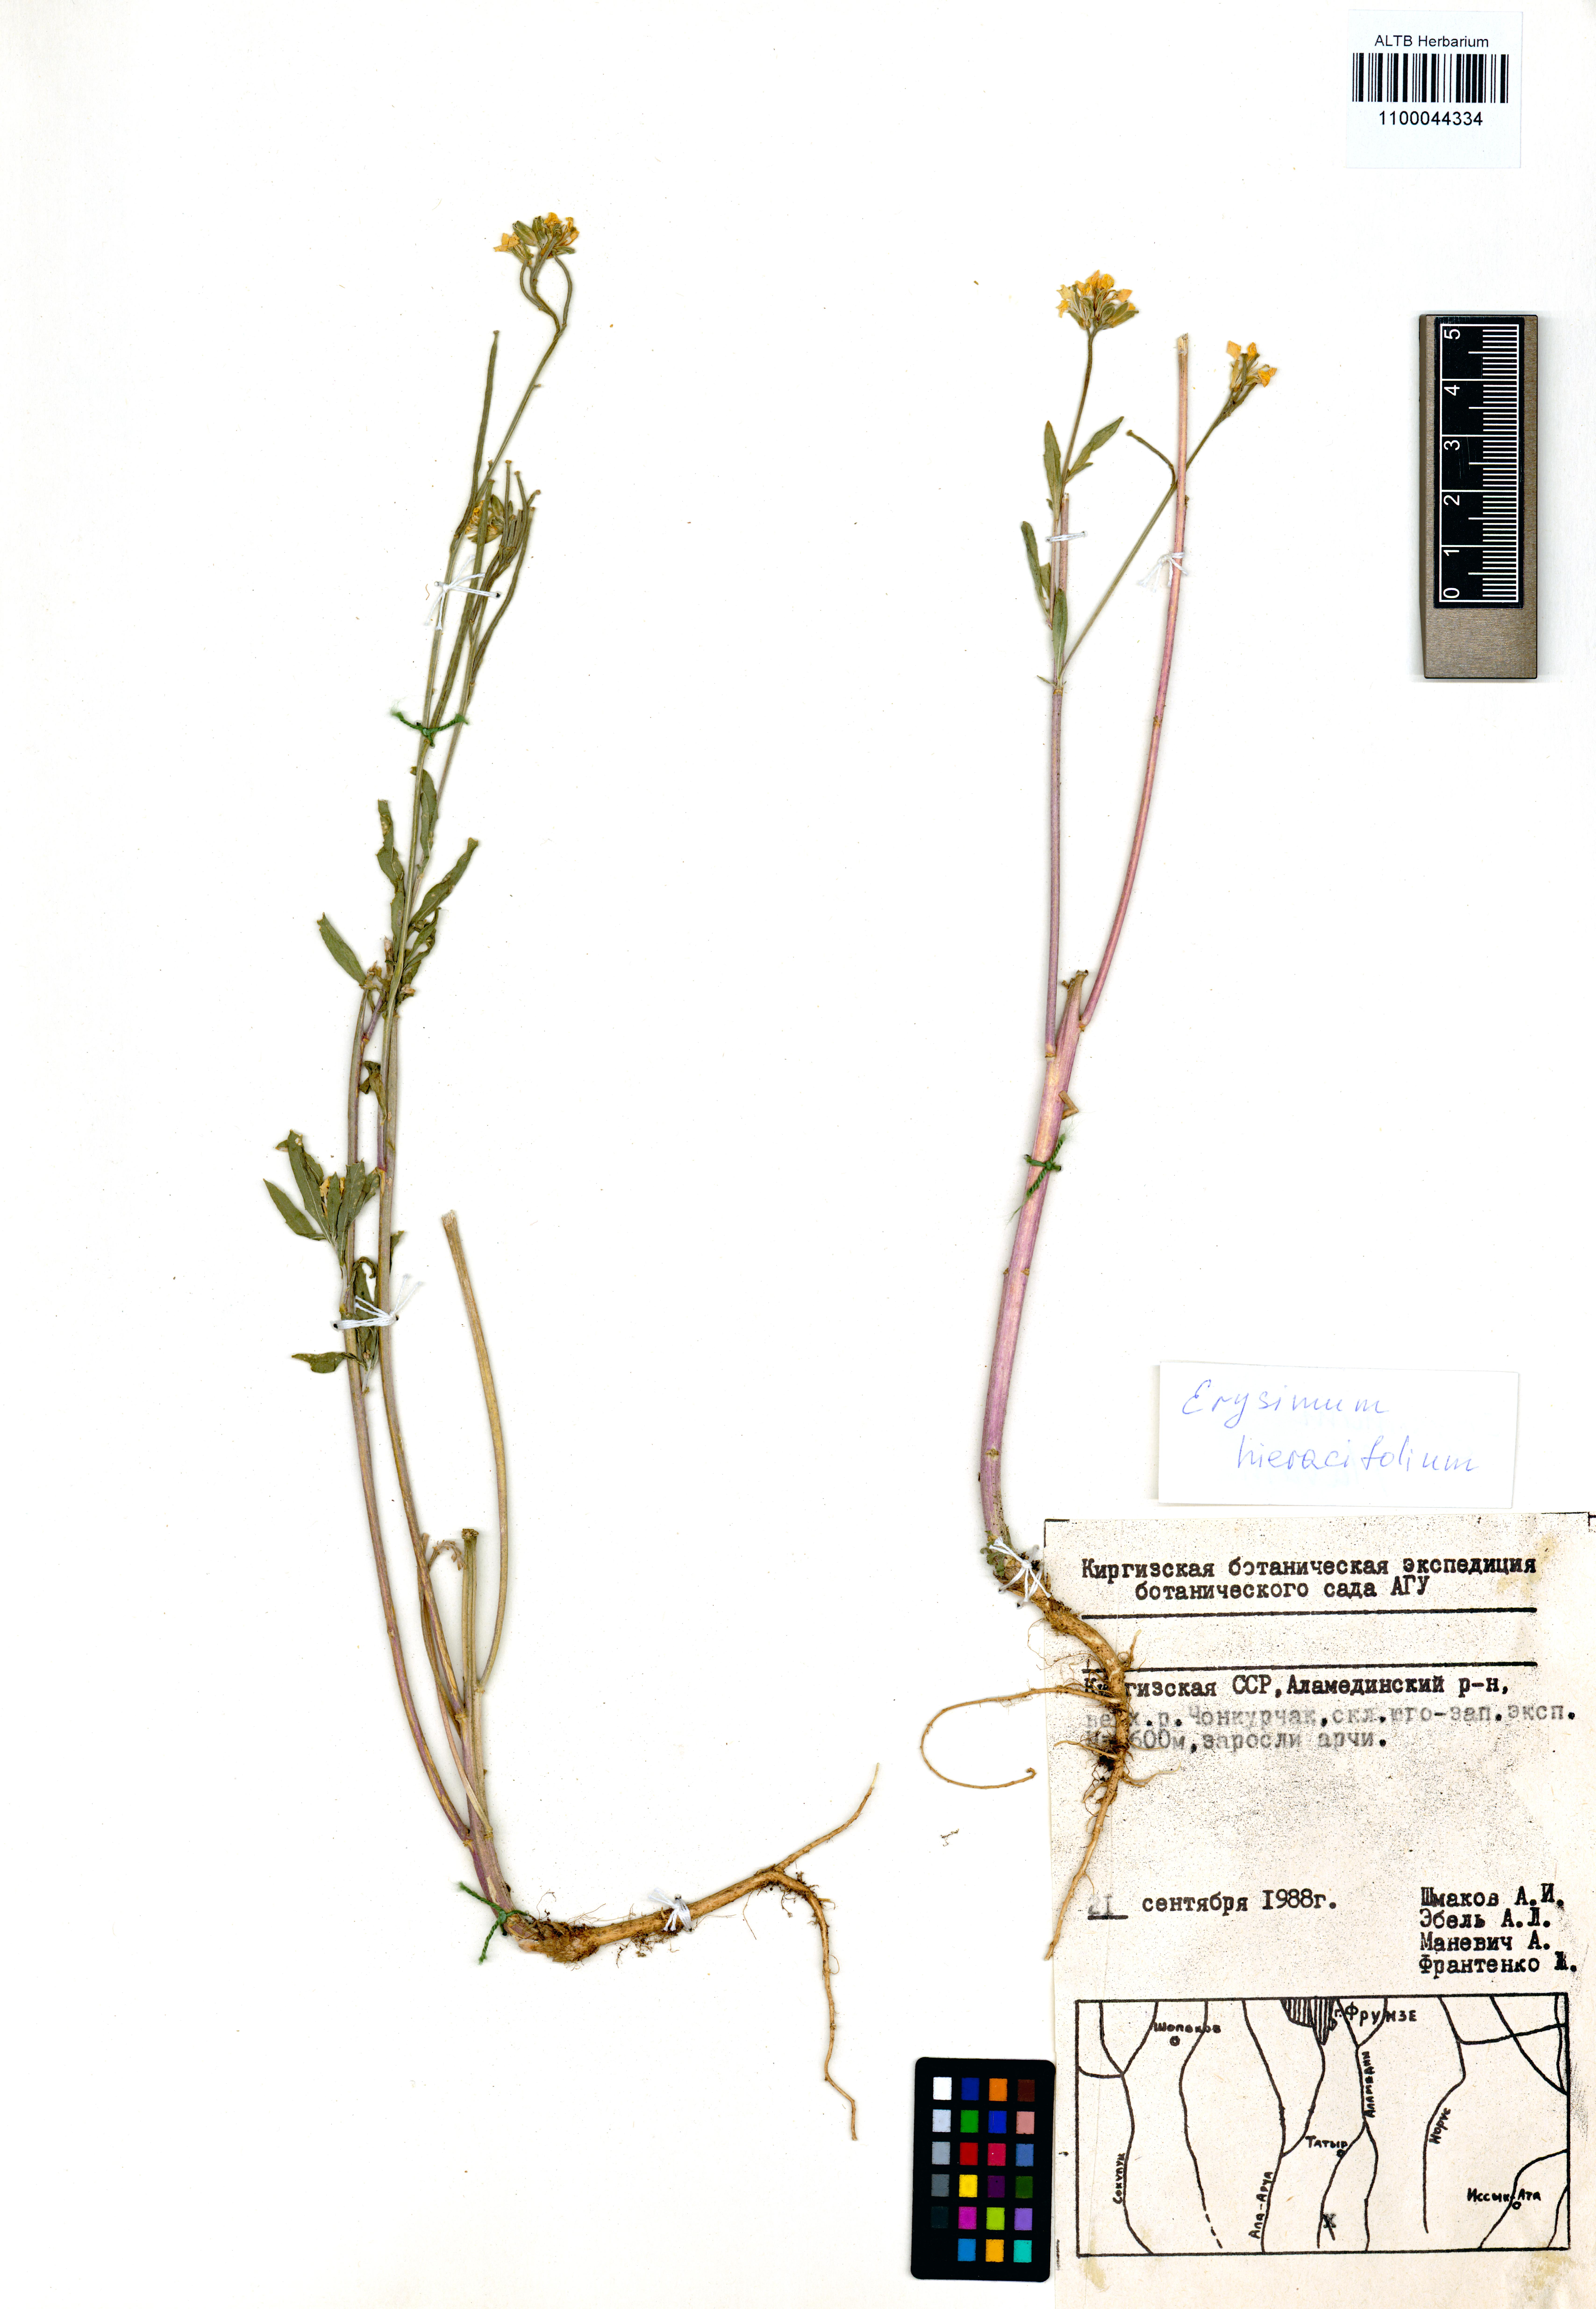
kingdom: Plantae
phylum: Tracheophyta
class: Magnoliopsida
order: Brassicales
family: Brassicaceae
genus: Erysimum
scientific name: Erysimum hieraciifolium
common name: European wallflower
